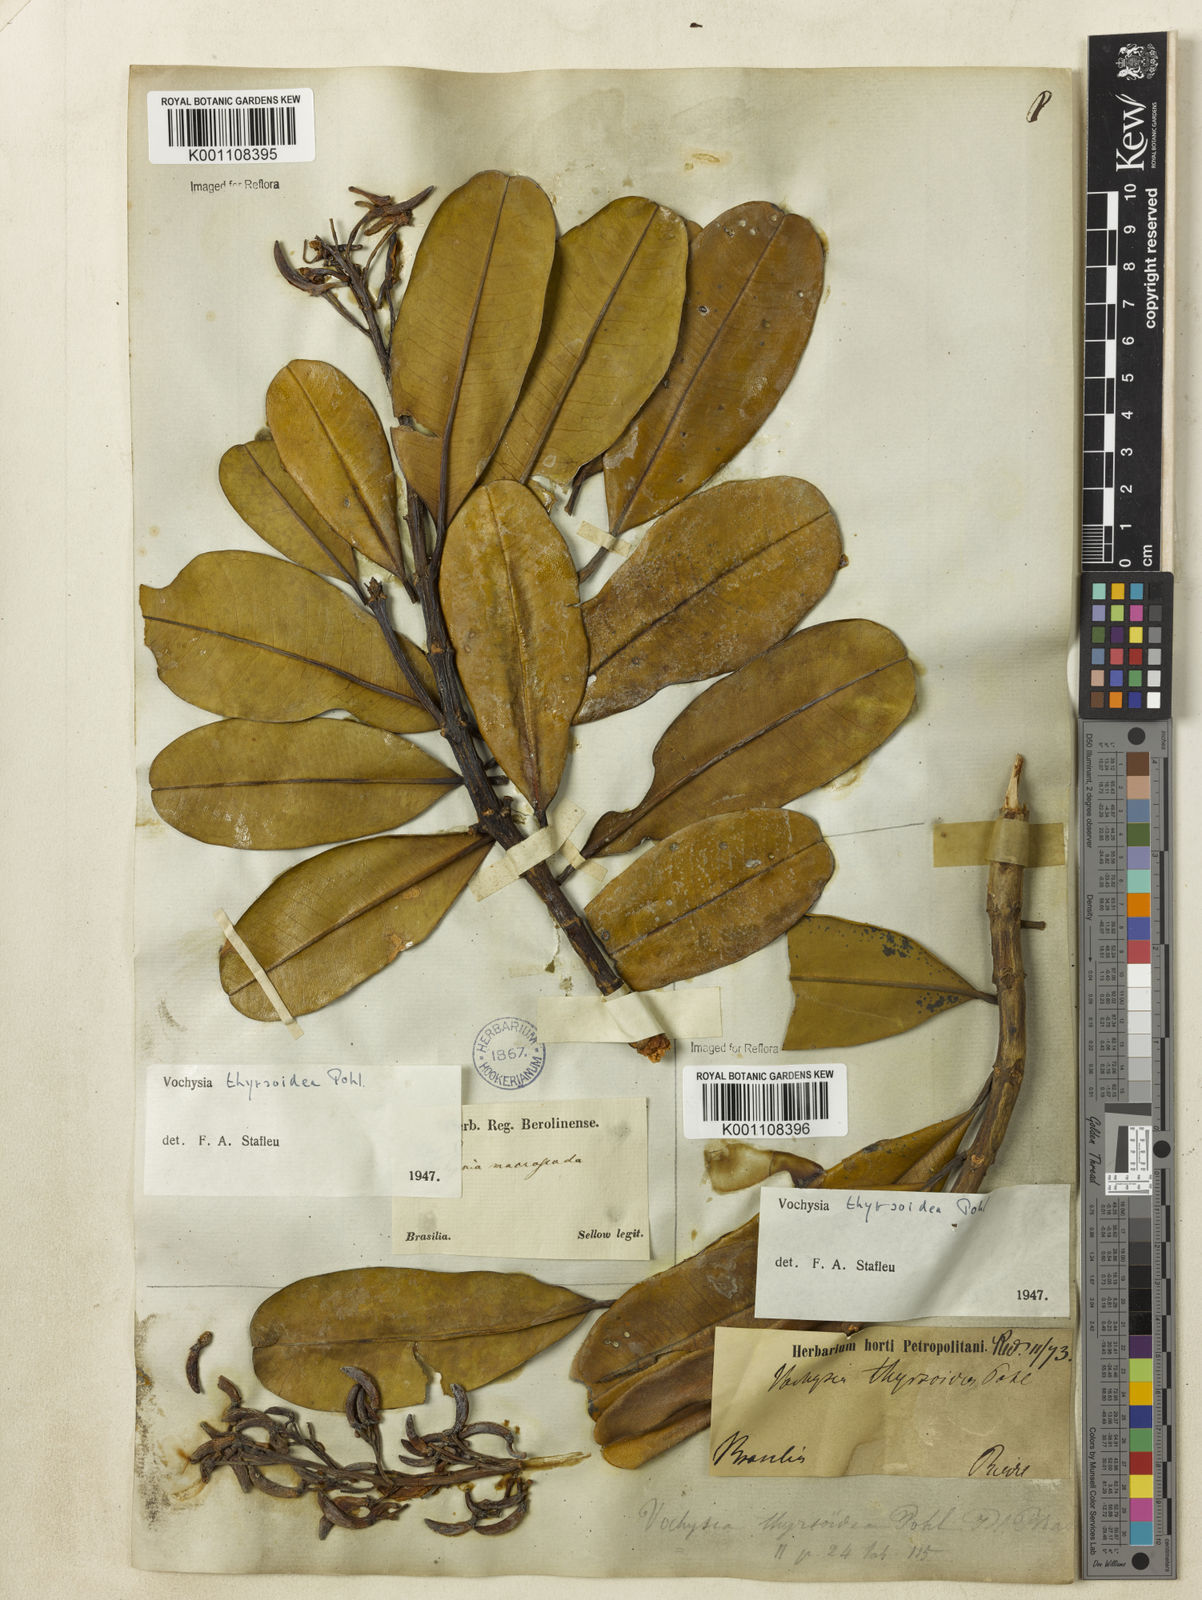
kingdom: Plantae
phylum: Tracheophyta
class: Magnoliopsida
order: Myrtales
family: Vochysiaceae
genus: Vochysia
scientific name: Vochysia thyrsoidea
